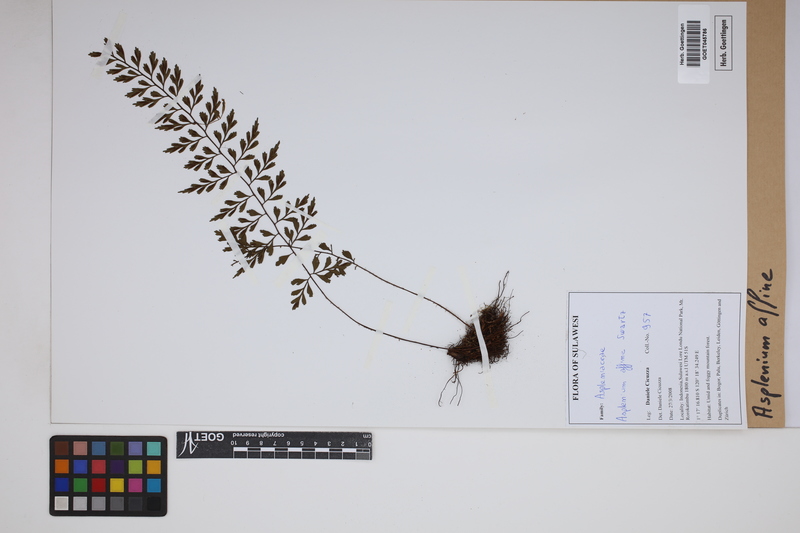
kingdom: Plantae
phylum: Tracheophyta
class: Polypodiopsida
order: Polypodiales
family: Aspleniaceae
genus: Asplenium
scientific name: Asplenium affine
